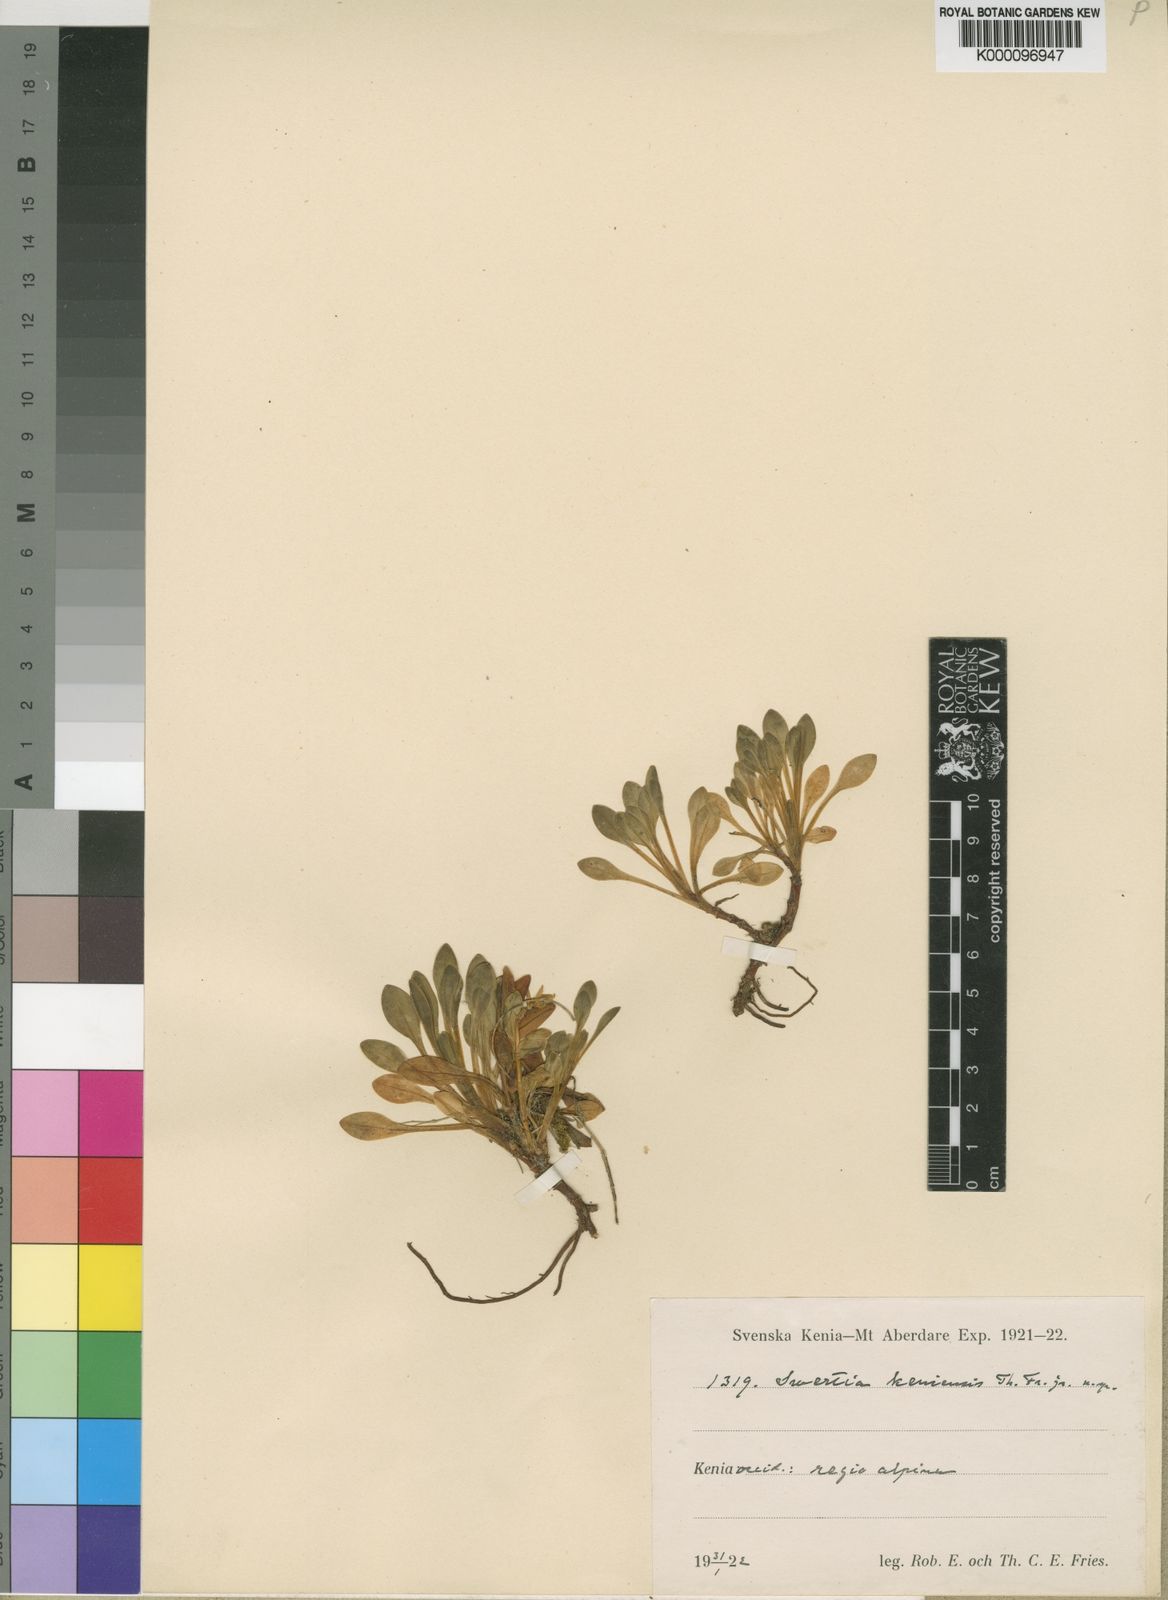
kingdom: Plantae
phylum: Tracheophyta
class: Magnoliopsida
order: Gentianales
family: Gentianaceae
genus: Swertia
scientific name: Swertia volkensii
